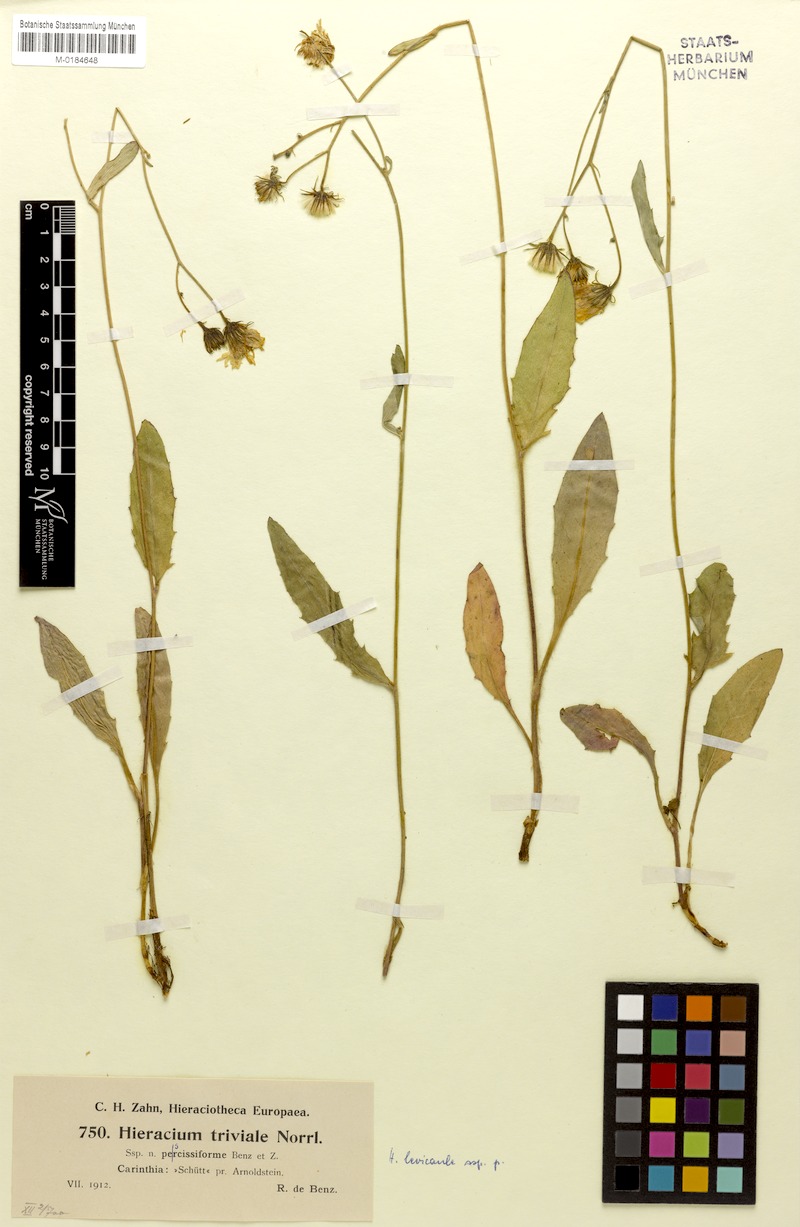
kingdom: Plantae
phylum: Tracheophyta
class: Magnoliopsida
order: Asterales
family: Asteraceae
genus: Hieracium
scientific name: Hieracium levicaule
